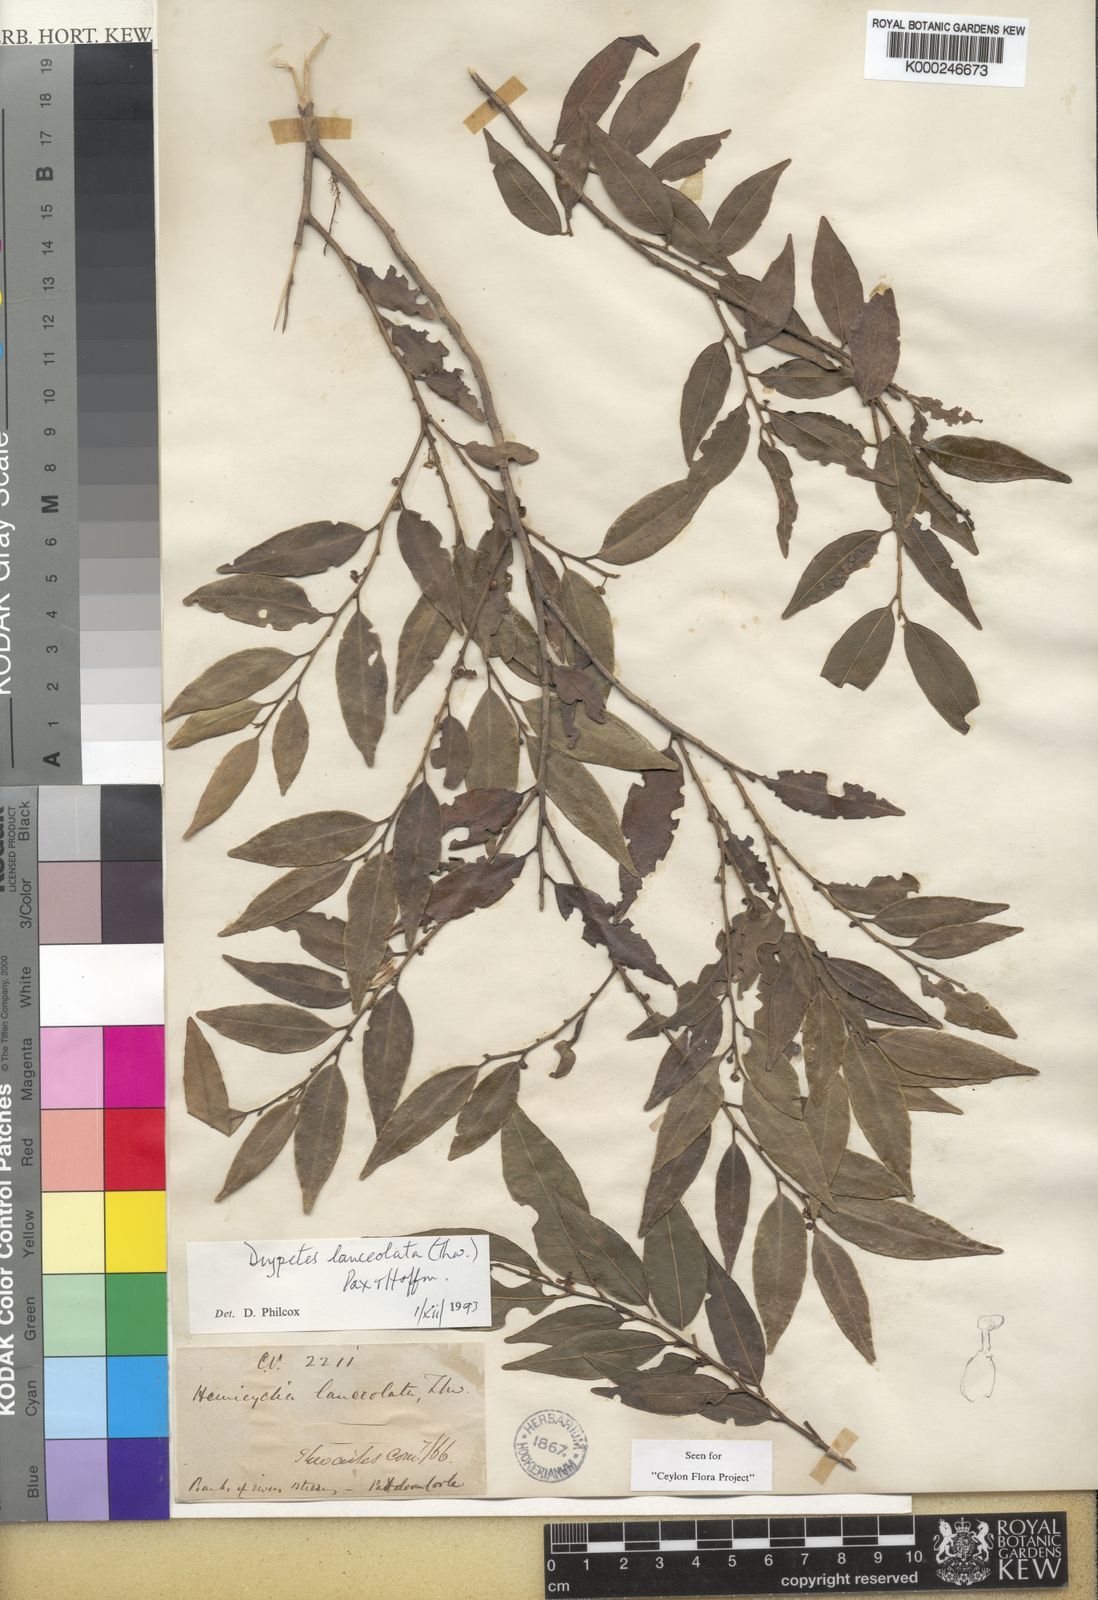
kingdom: Plantae
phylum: Tracheophyta
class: Magnoliopsida
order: Malpighiales
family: Putranjivaceae
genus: Drypetes
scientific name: Drypetes sumatrana
